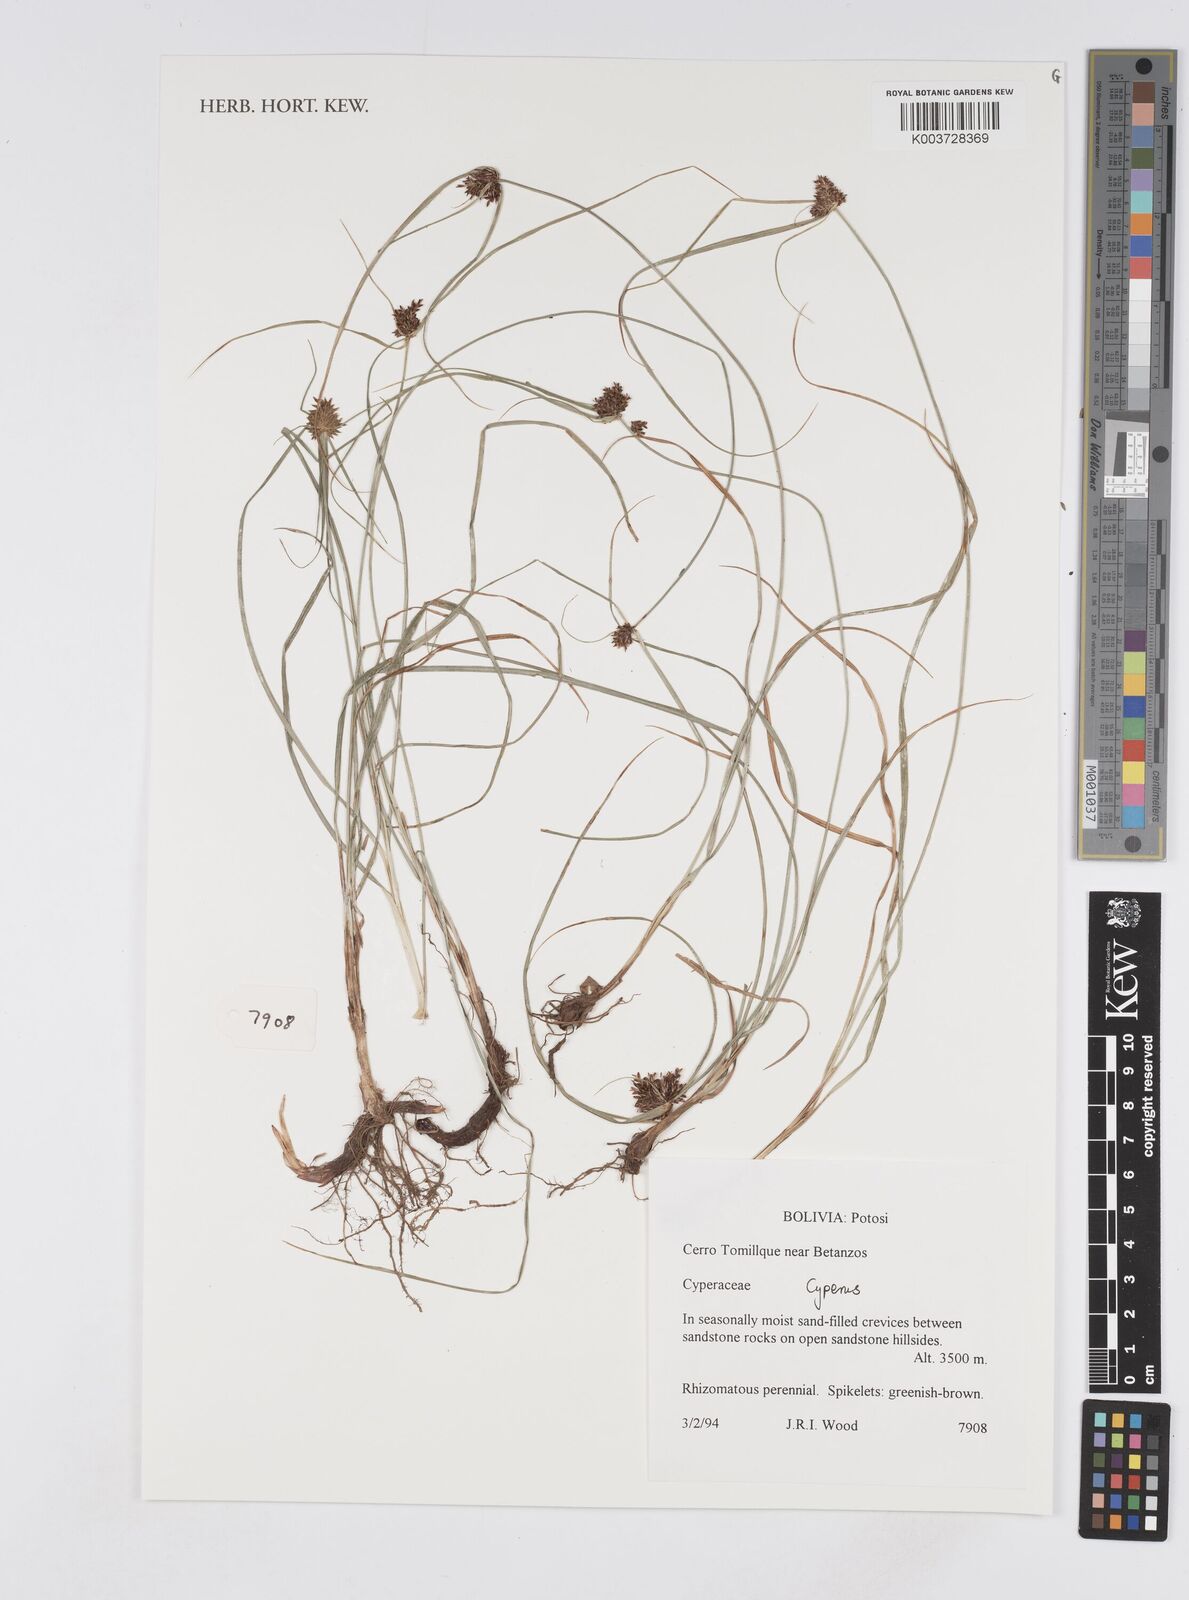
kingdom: Plantae
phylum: Tracheophyta
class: Liliopsida
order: Poales
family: Cyperaceae
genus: Cyperus
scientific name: Cyperus
